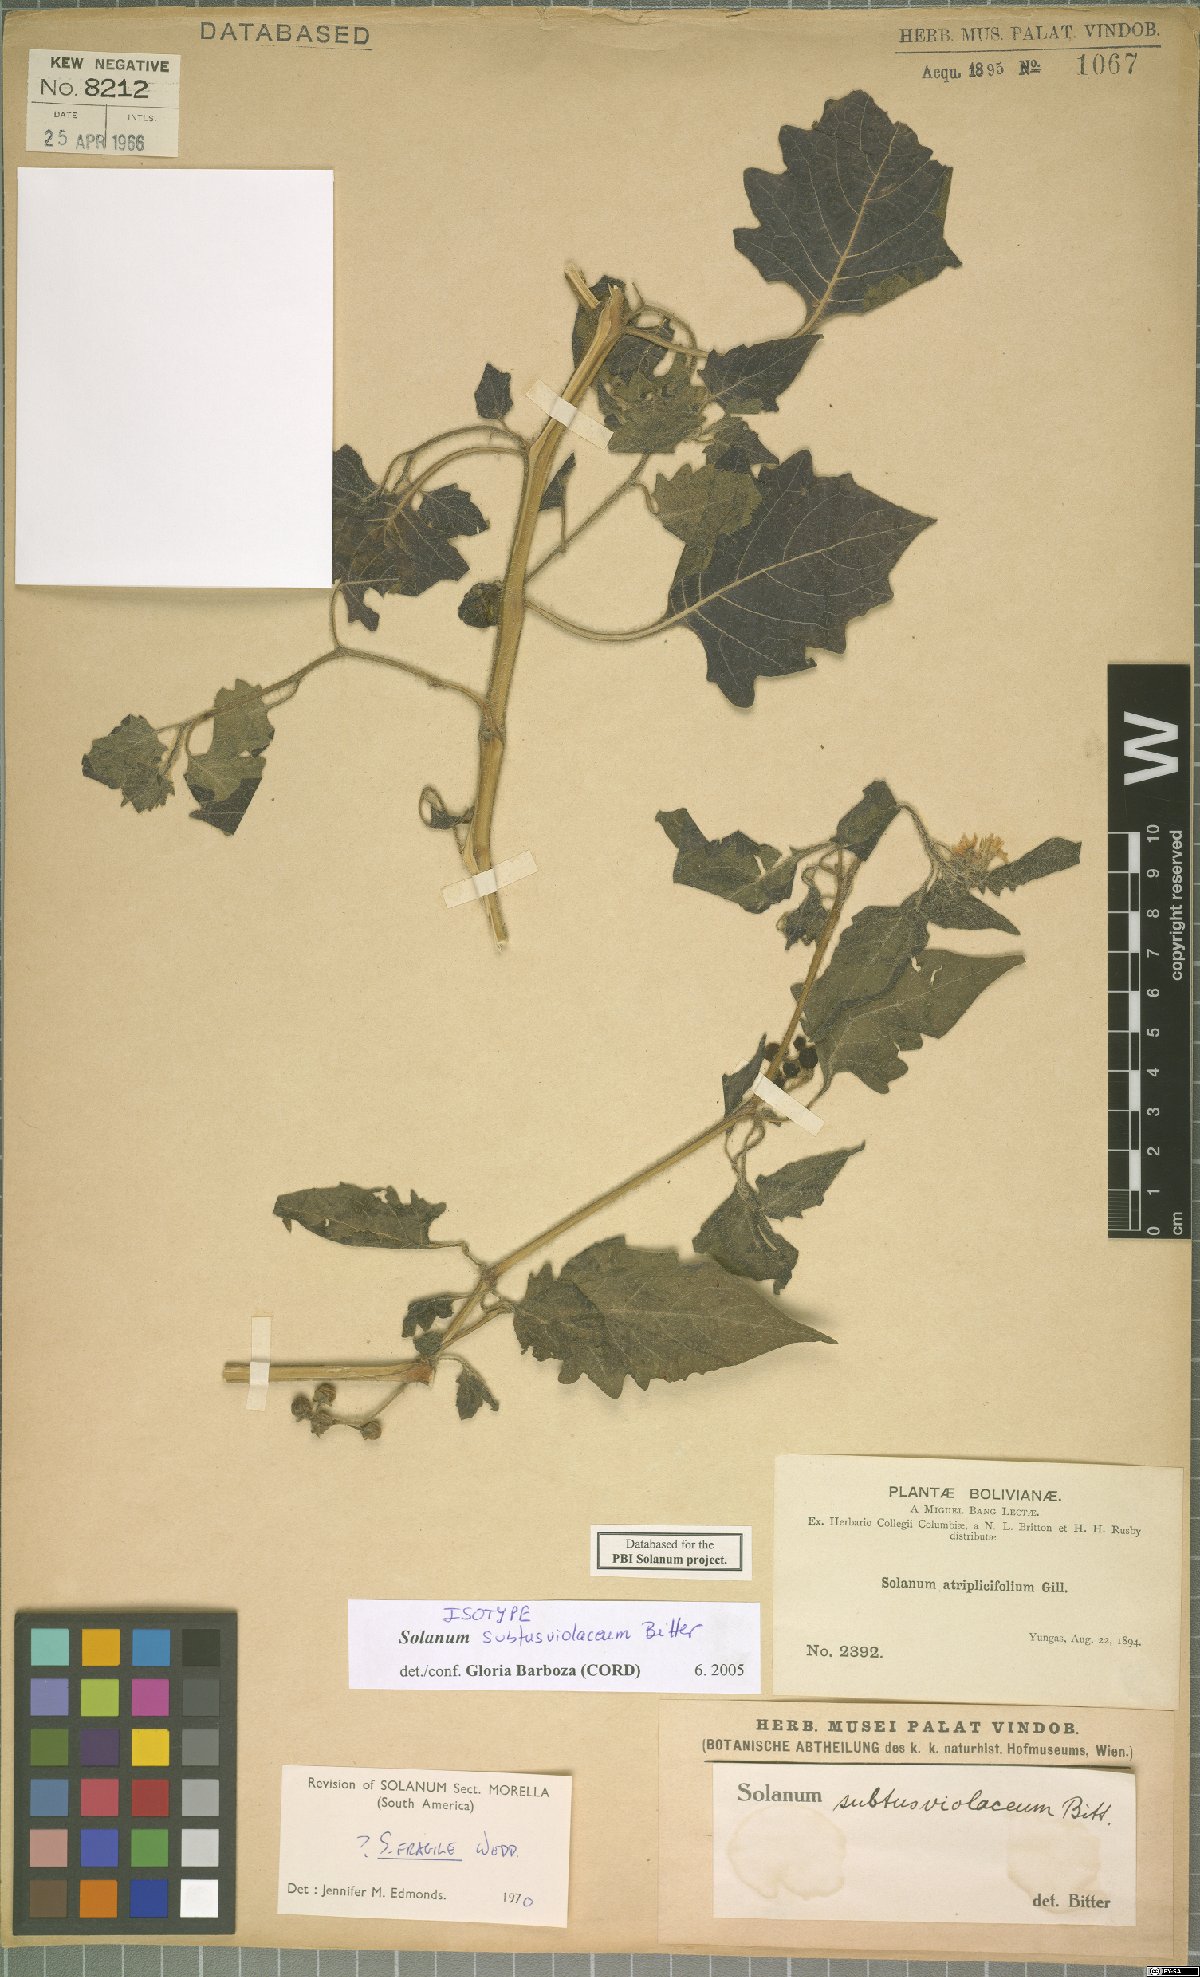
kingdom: Plantae
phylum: Tracheophyta
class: Magnoliopsida
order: Solanales
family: Solanaceae
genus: Solanum
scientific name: Solanum pallidum
